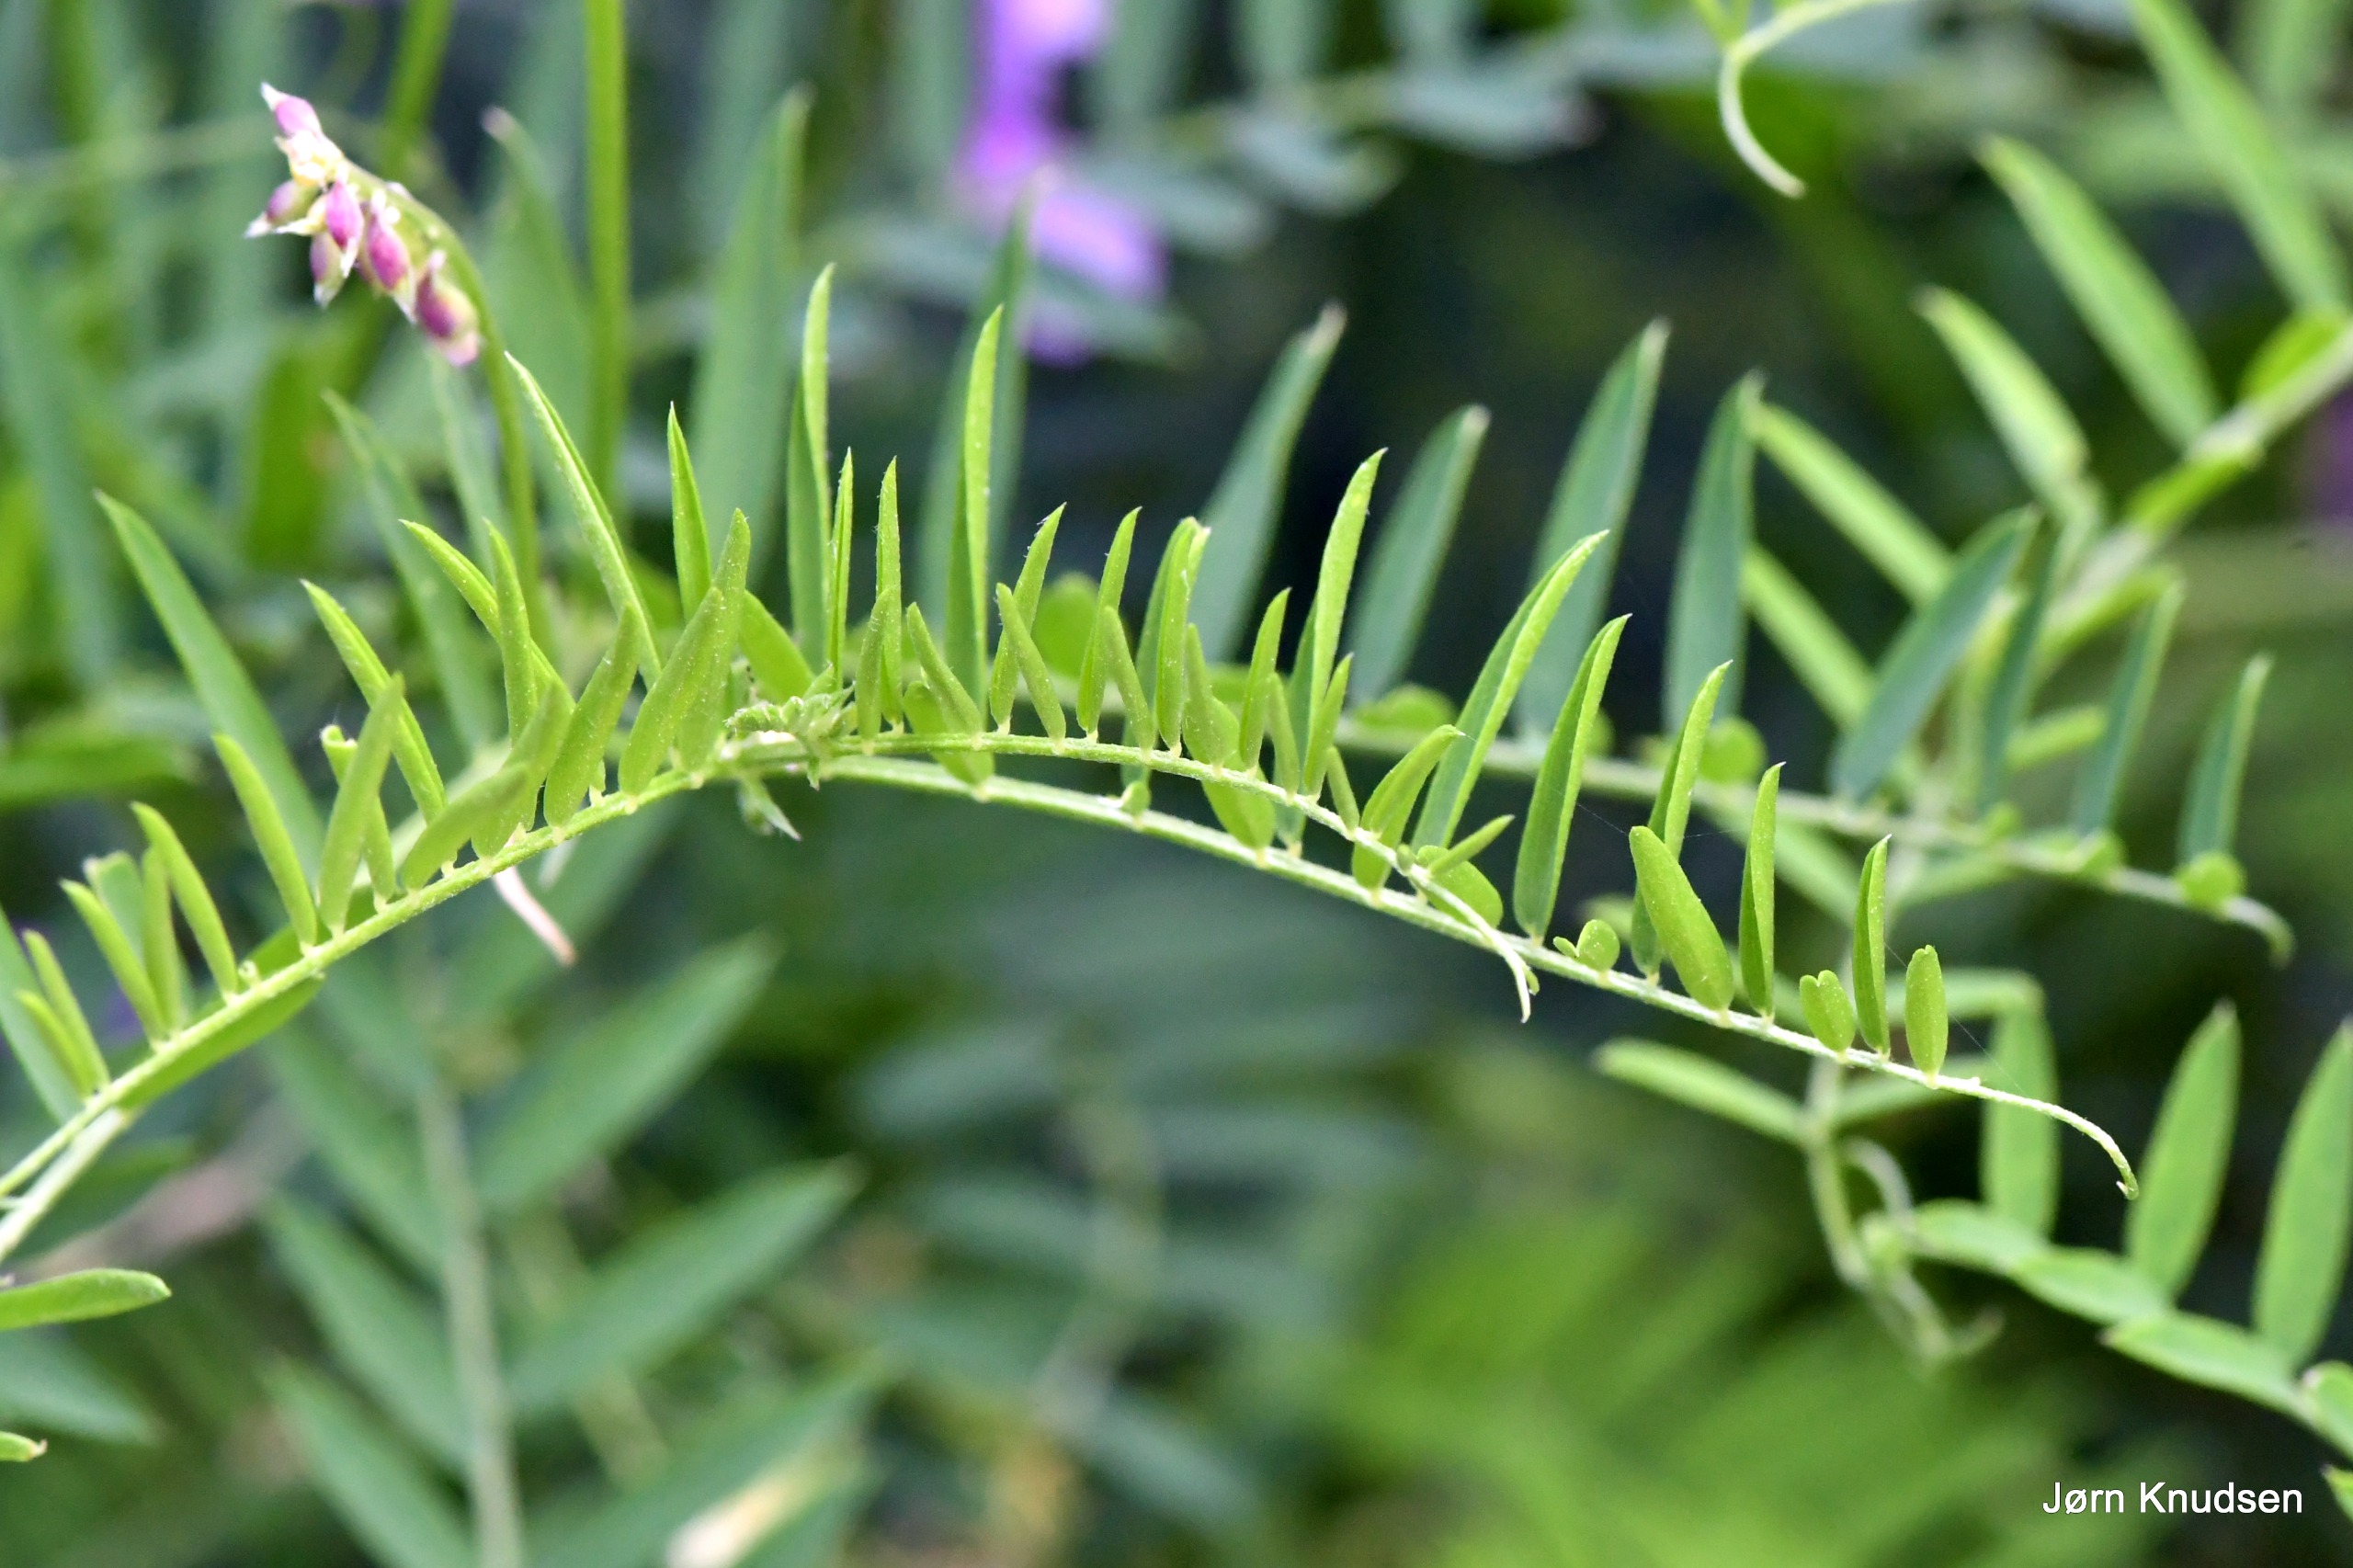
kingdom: Plantae
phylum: Tracheophyta
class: Magnoliopsida
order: Fabales
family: Fabaceae
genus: Vicia
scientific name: Vicia tenuifolia
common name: Langklaset vikke
